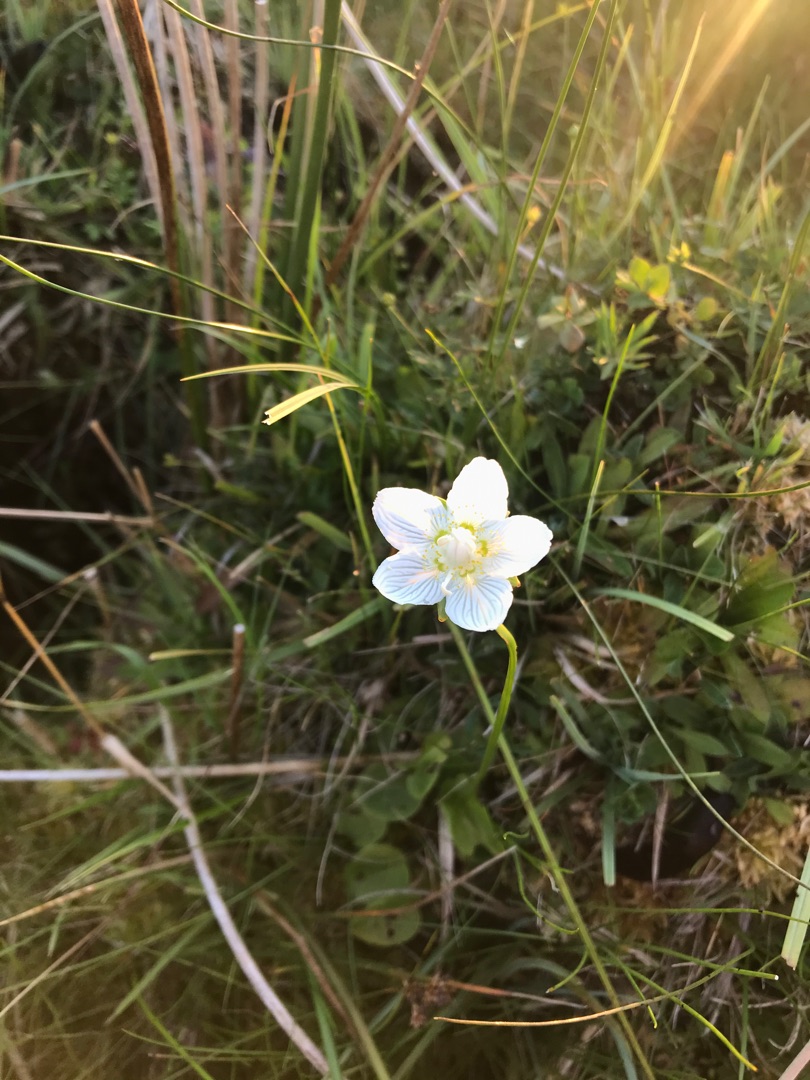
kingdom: Plantae
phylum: Tracheophyta
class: Magnoliopsida
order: Celastrales
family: Parnassiaceae
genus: Parnassia
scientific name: Parnassia palustris
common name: Leverurt
